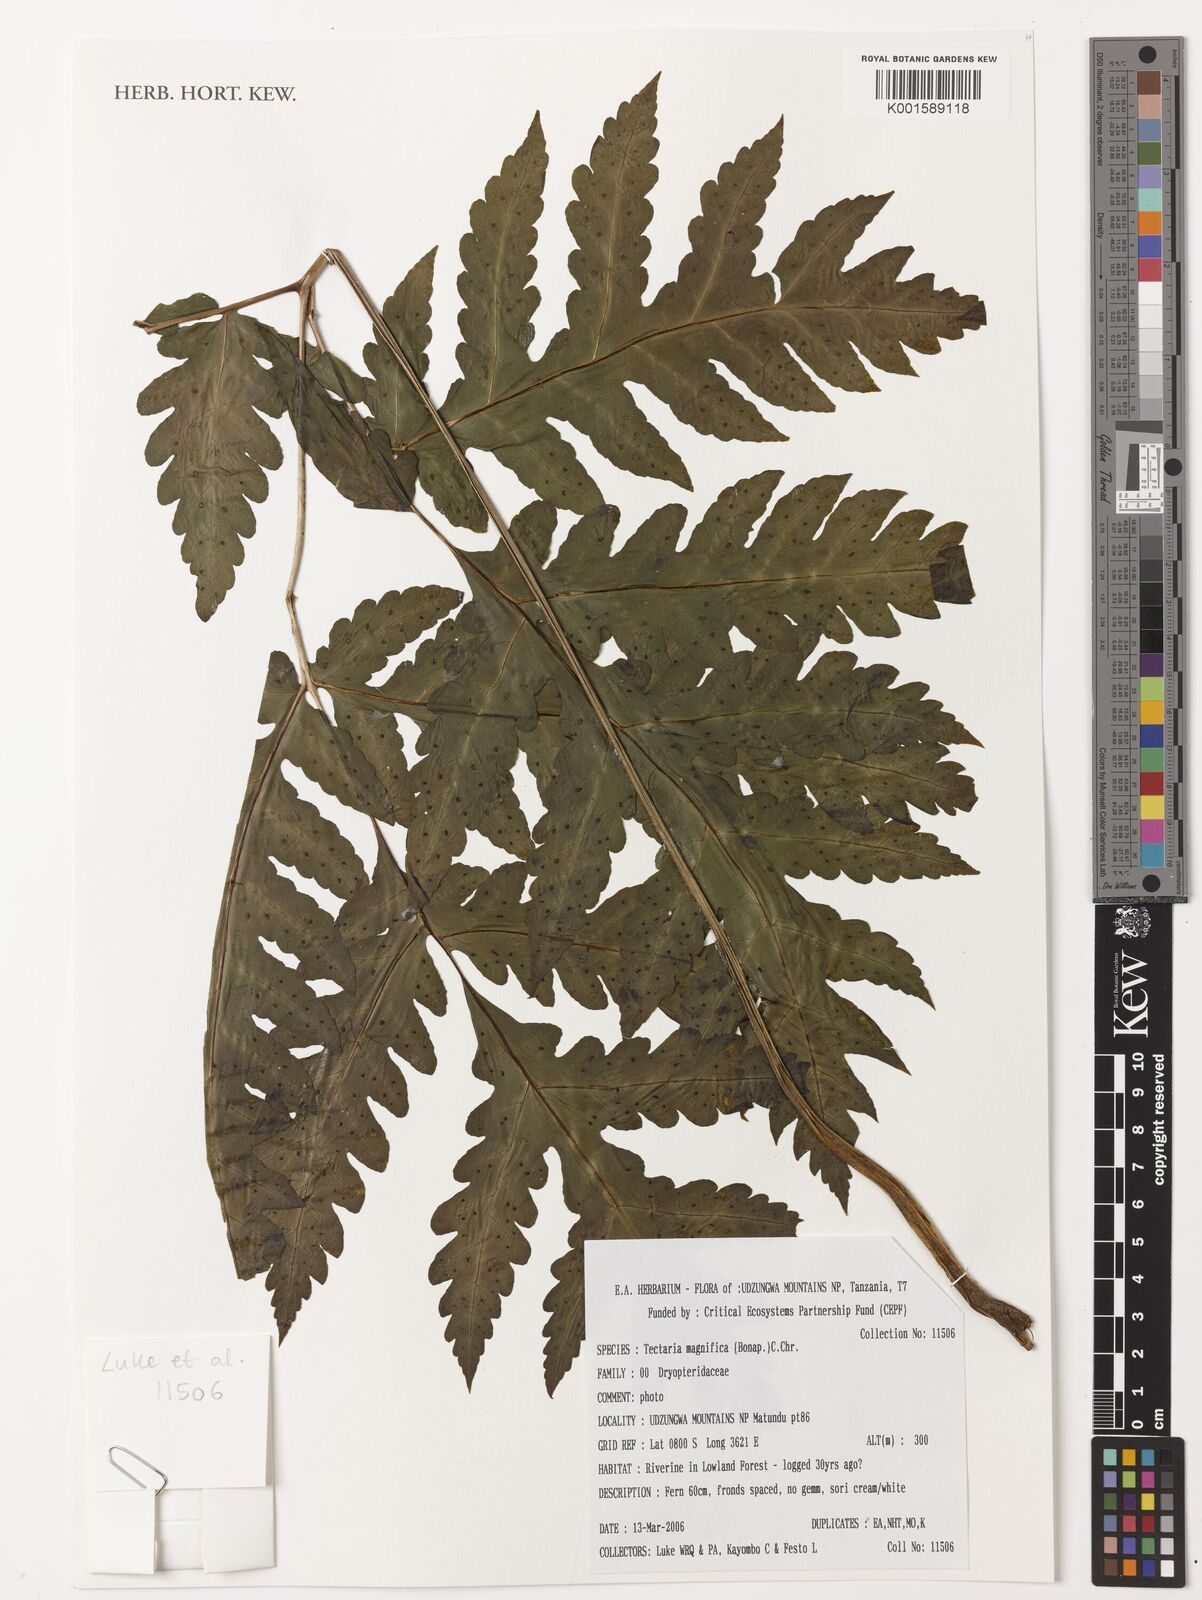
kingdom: Plantae
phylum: Tracheophyta
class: Polypodiopsida
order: Polypodiales
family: Tectariaceae
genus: Tectaria
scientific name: Tectaria magnifica
